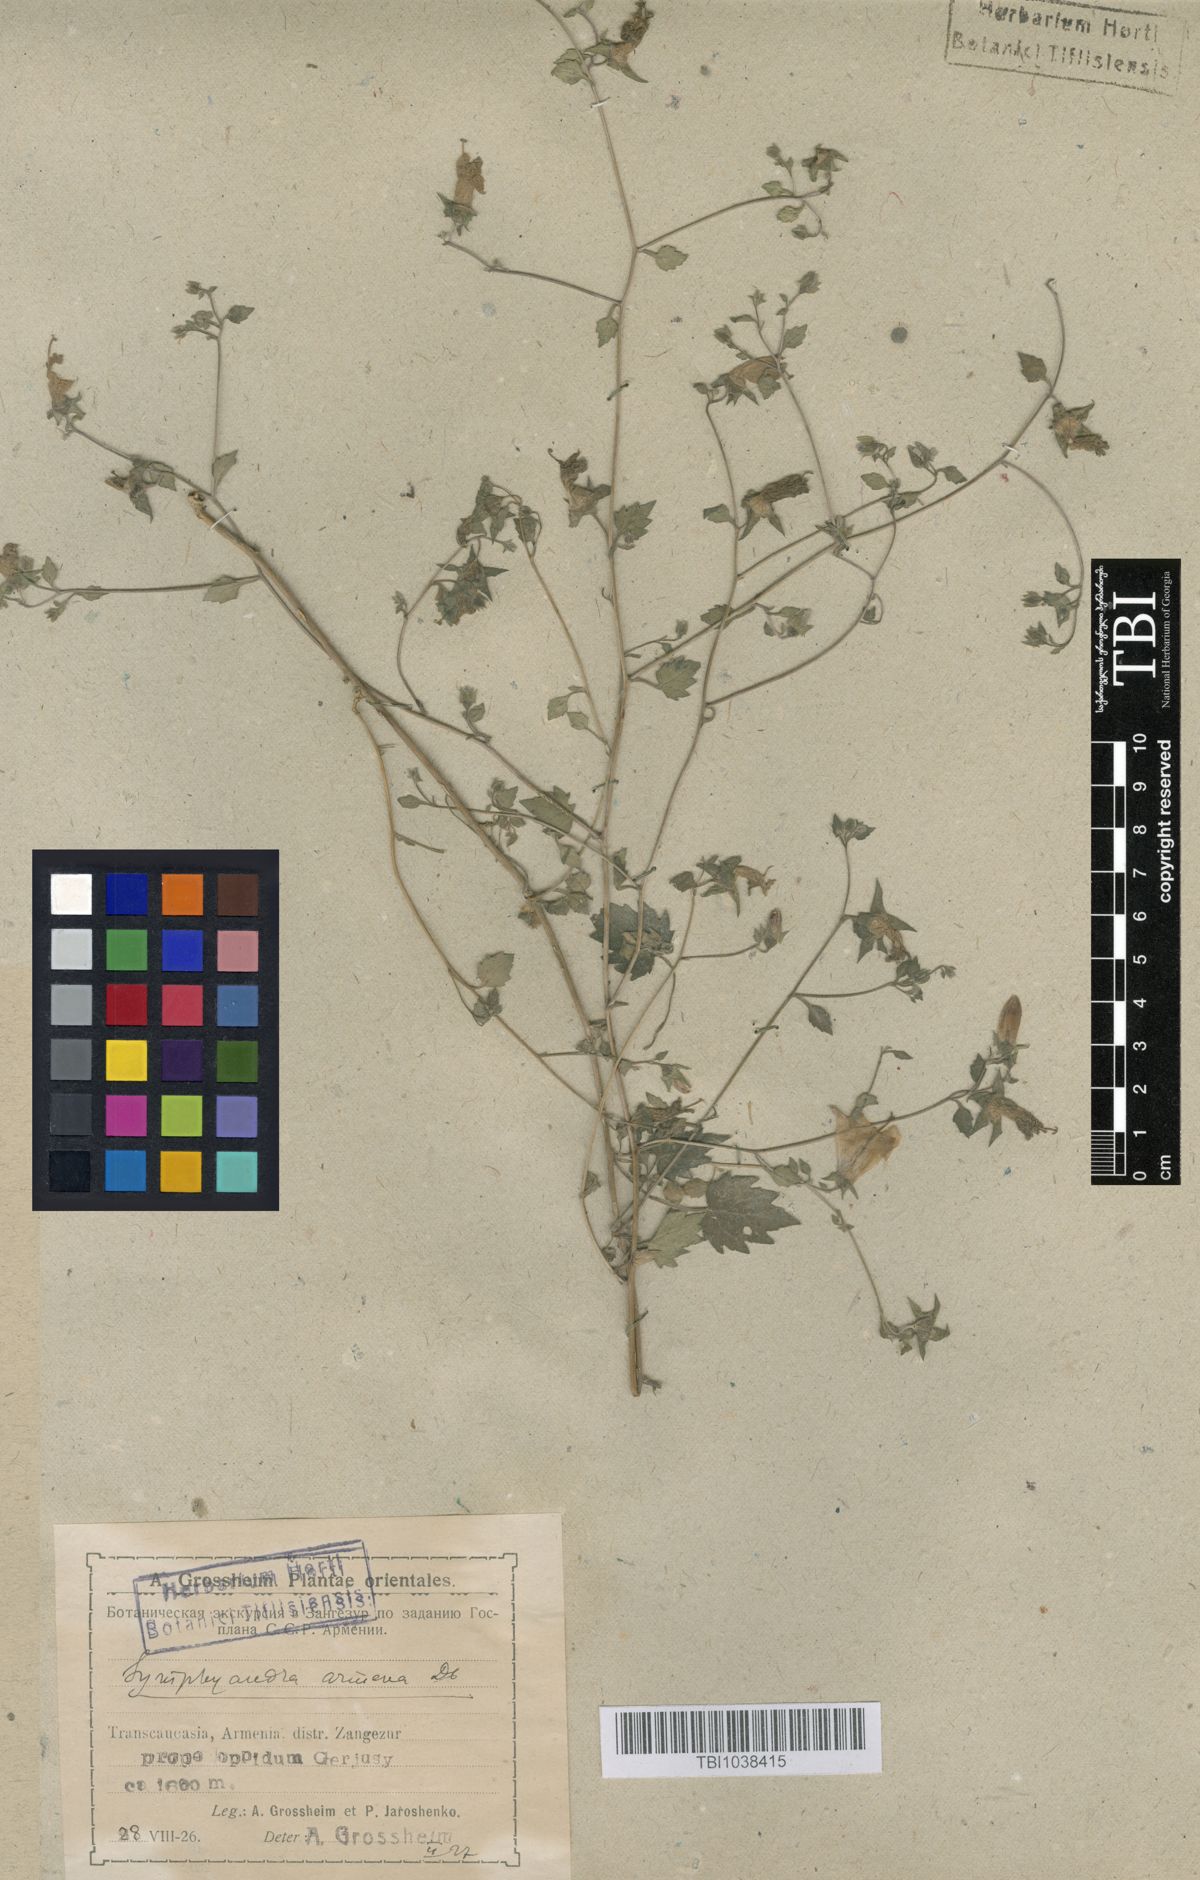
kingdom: Plantae
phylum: Tracheophyta
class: Magnoliopsida
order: Asterales
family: Campanulaceae
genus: Campanula
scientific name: Campanula armena
